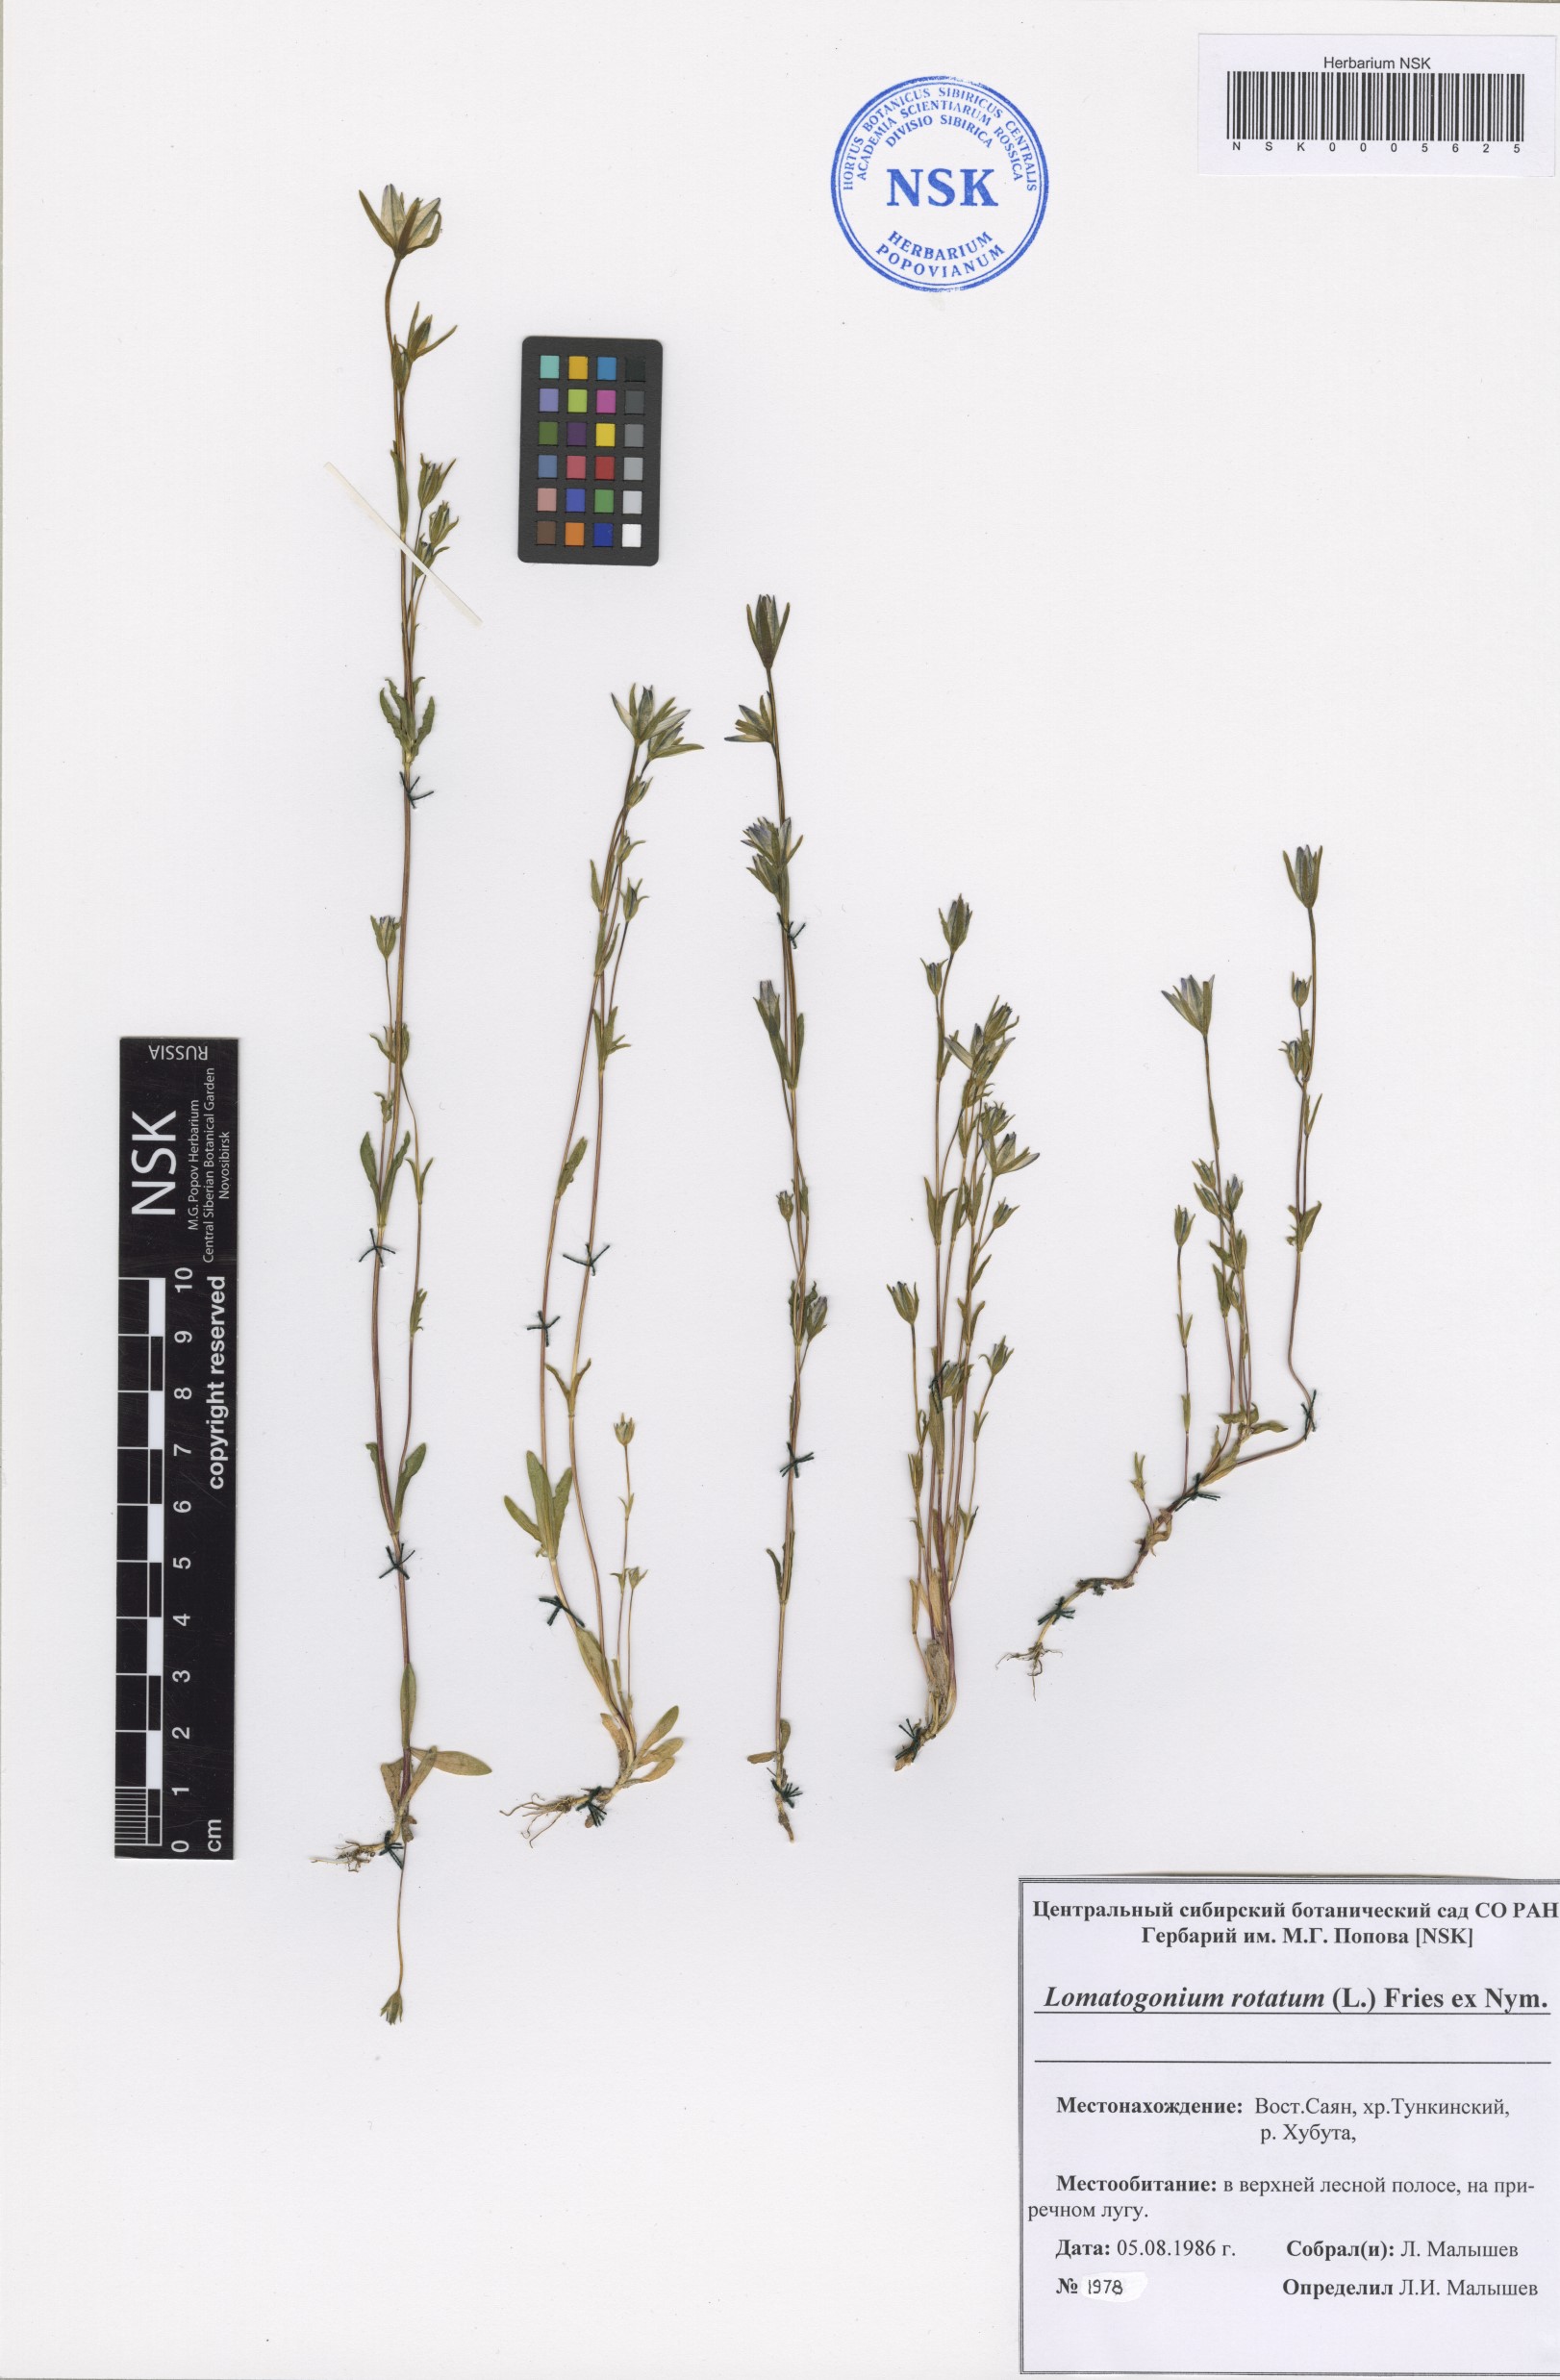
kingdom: Plantae
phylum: Tracheophyta
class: Magnoliopsida
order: Gentianales
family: Gentianaceae
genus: Lomatogonium
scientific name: Lomatogonium rotatum
